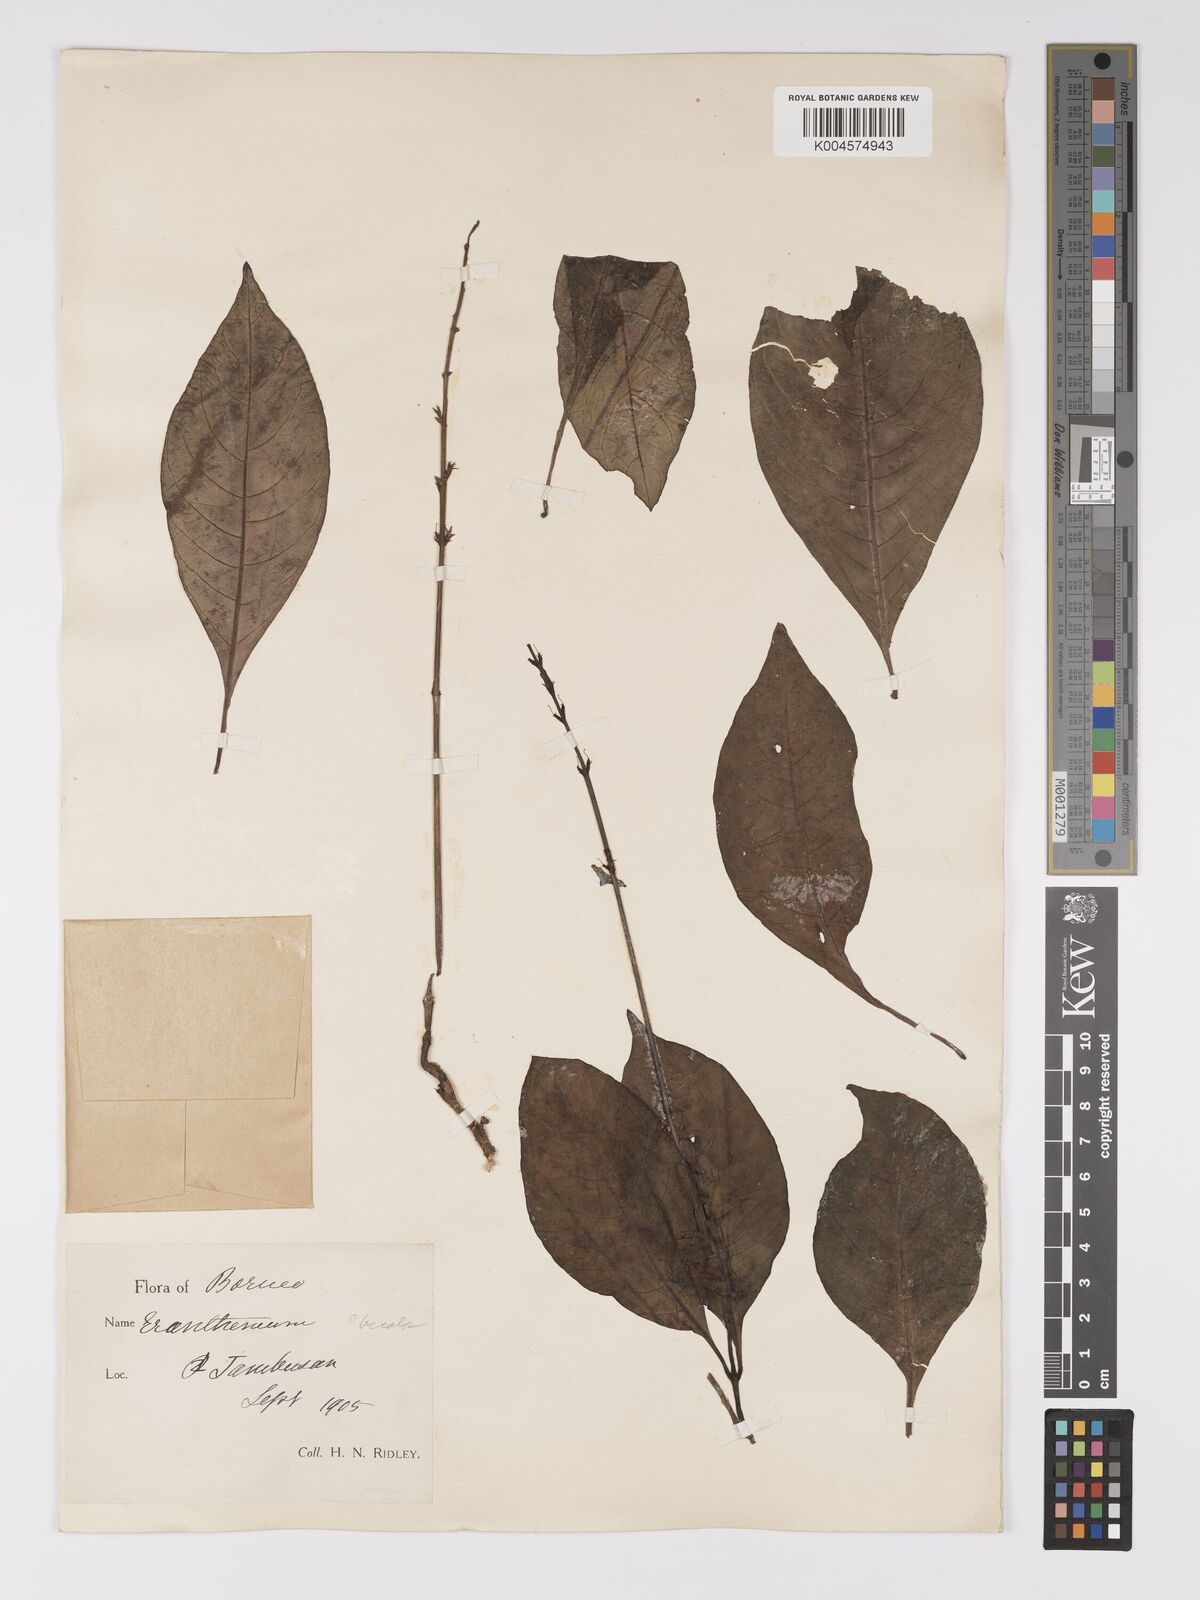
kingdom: Plantae
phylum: Tracheophyta
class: Magnoliopsida
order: Lamiales
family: Acanthaceae
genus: Pseuderanthemum
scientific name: Pseuderanthemum
